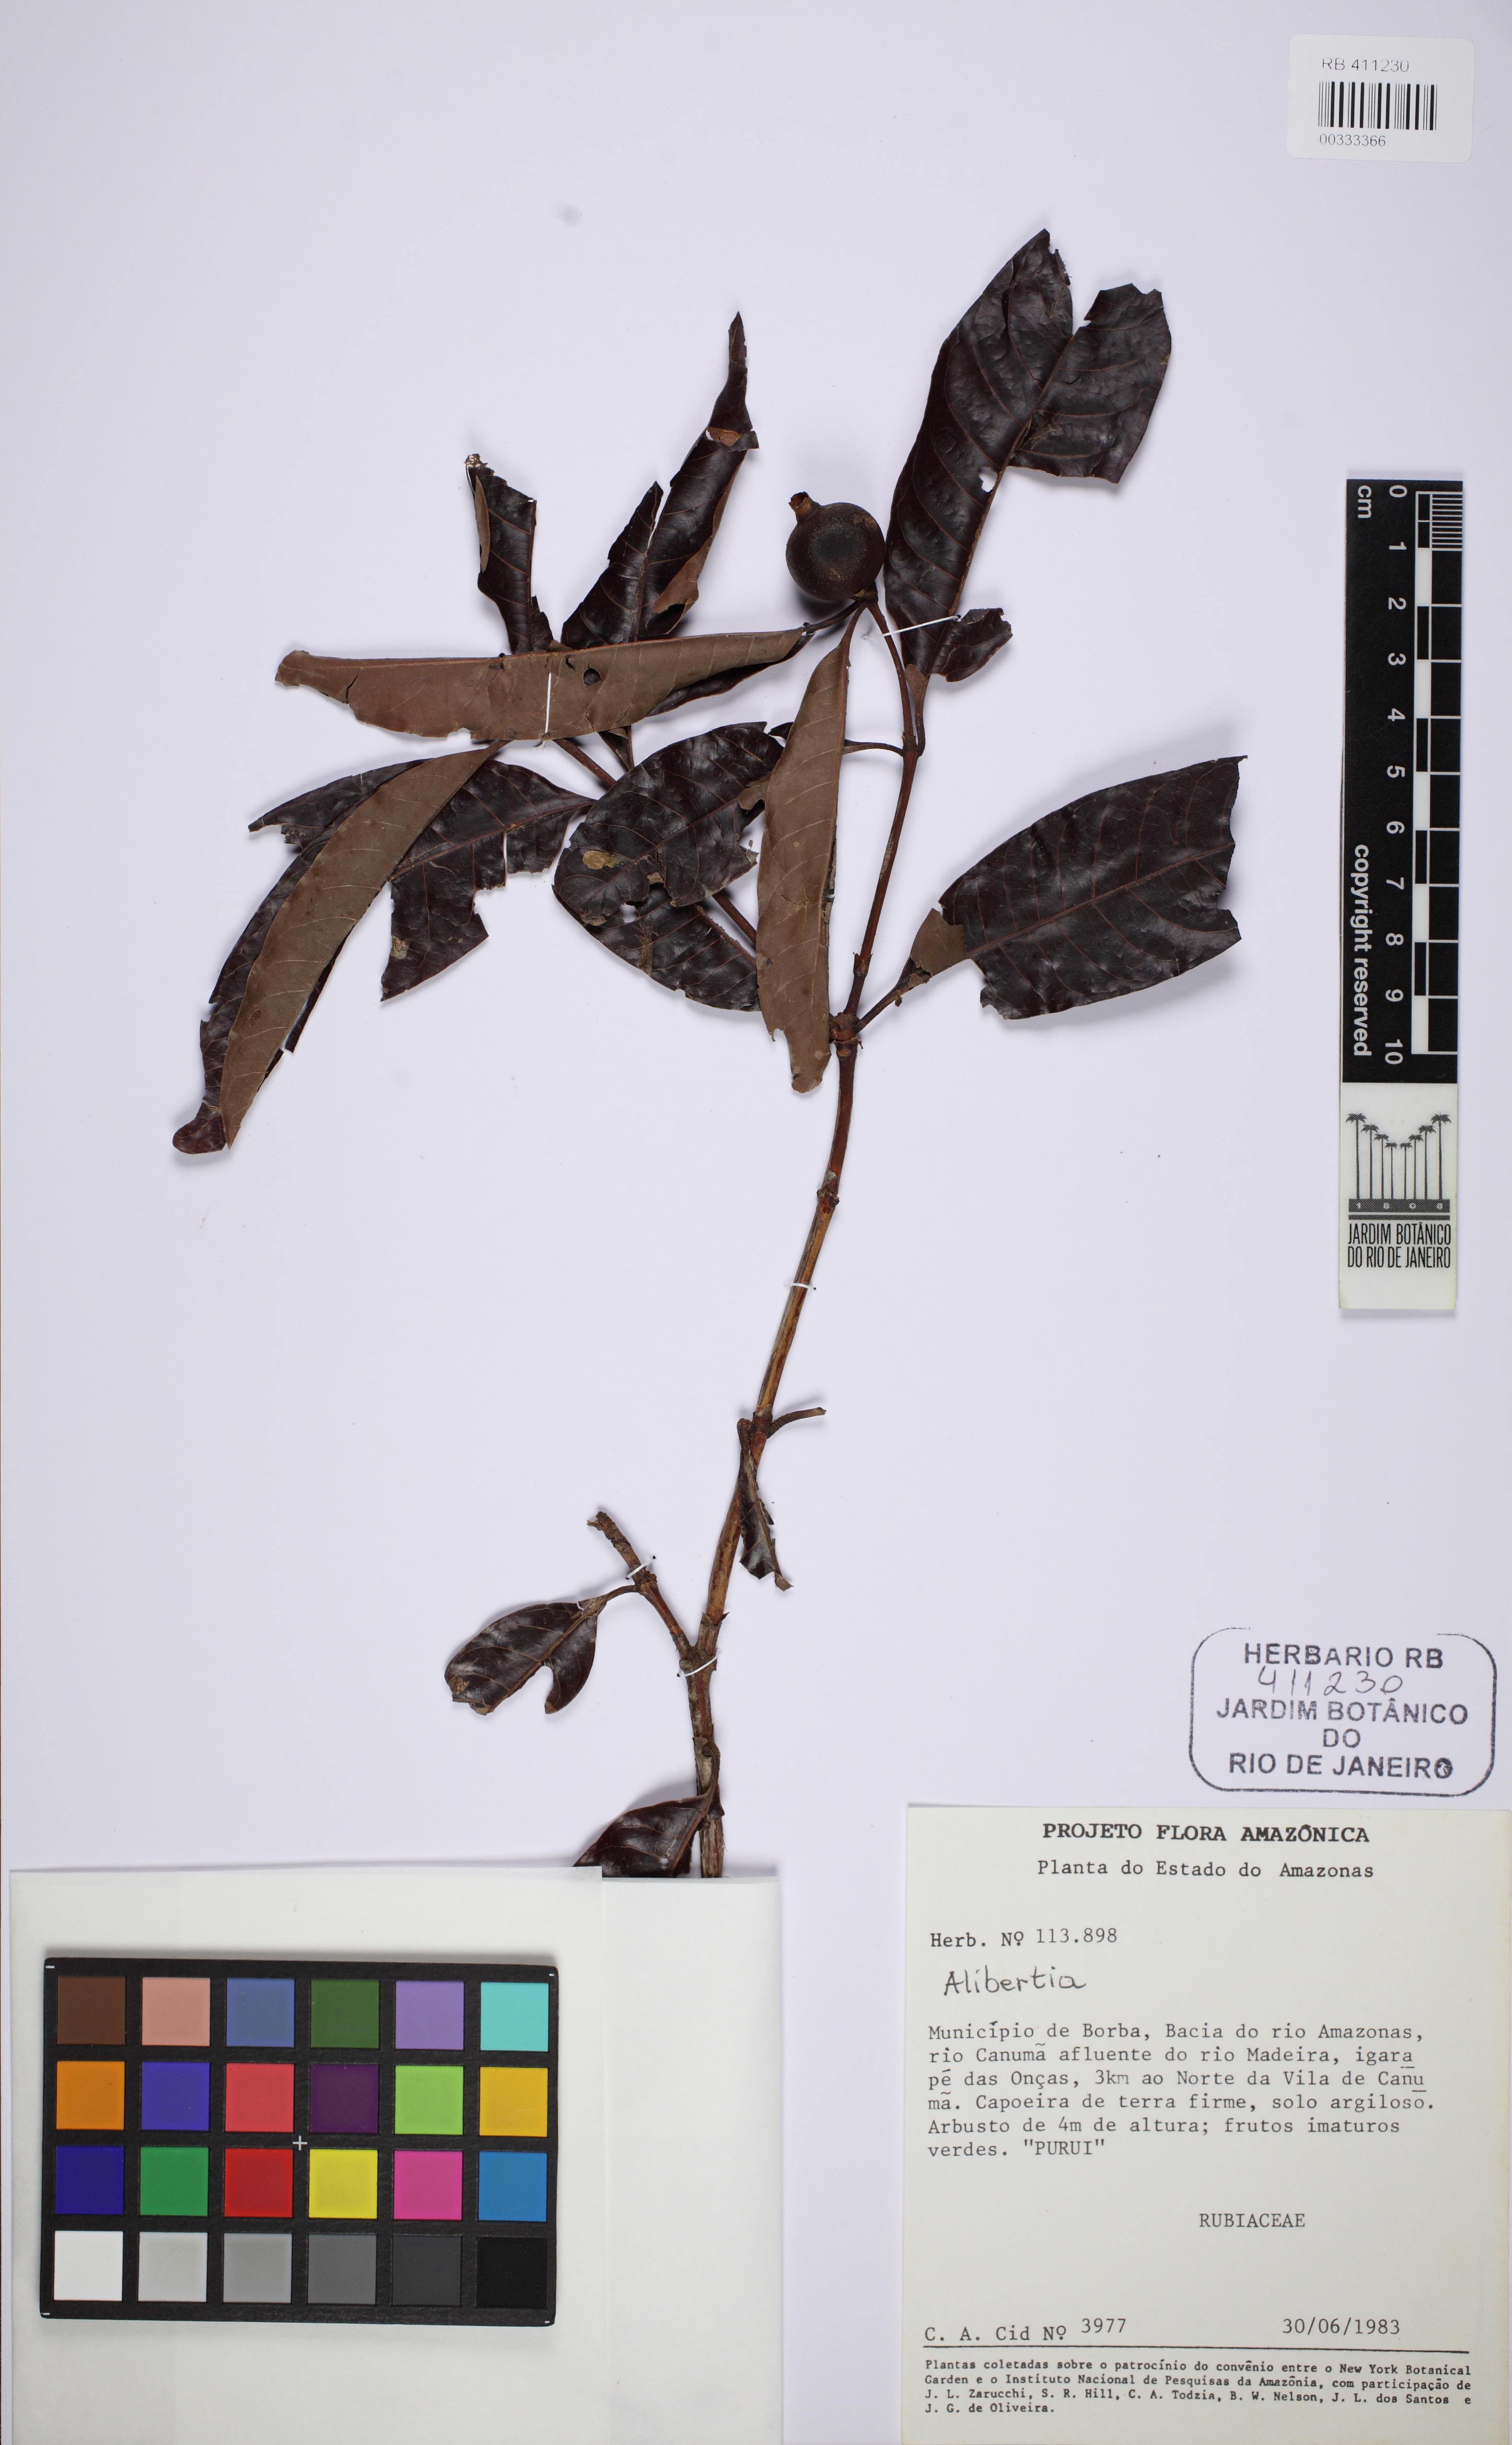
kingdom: Plantae
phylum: Tracheophyta
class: Magnoliopsida
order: Gentianales
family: Rubiaceae
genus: Alibertia
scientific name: Alibertia edulis
